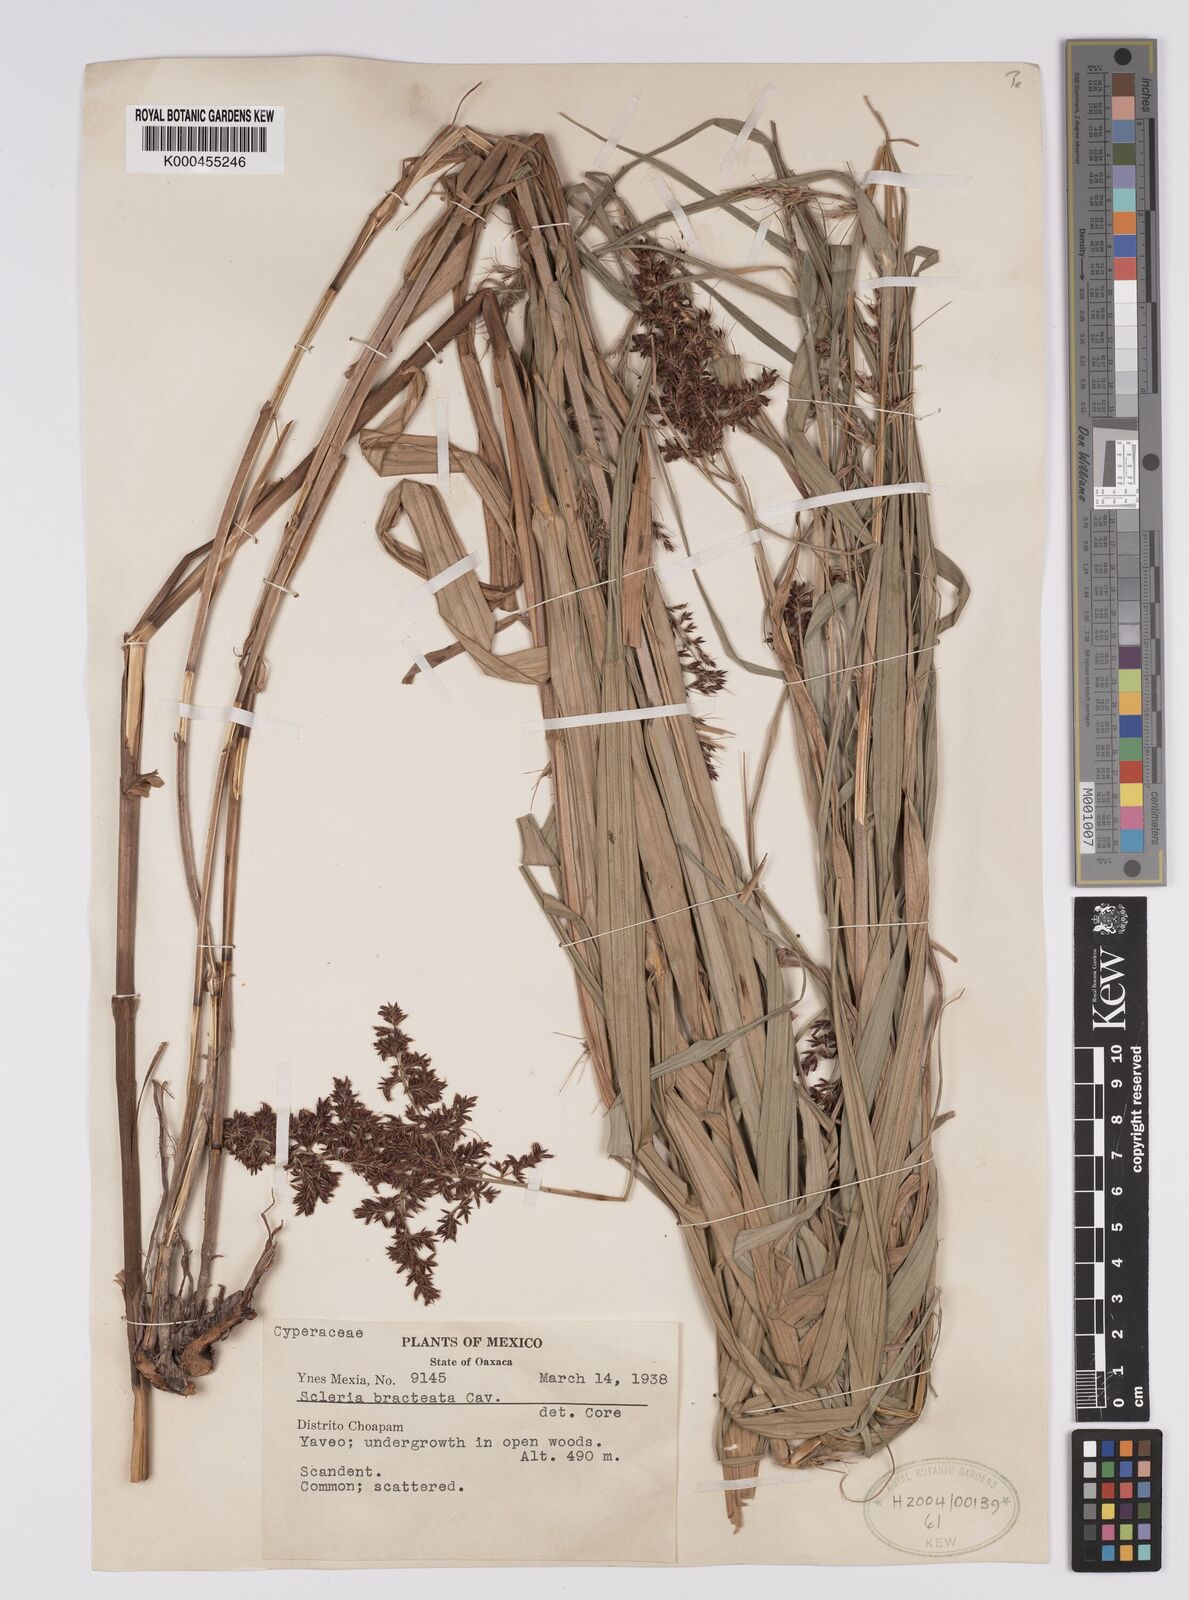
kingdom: Plantae
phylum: Tracheophyta
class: Liliopsida
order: Poales
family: Cyperaceae
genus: Scleria
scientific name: Scleria bracteata
